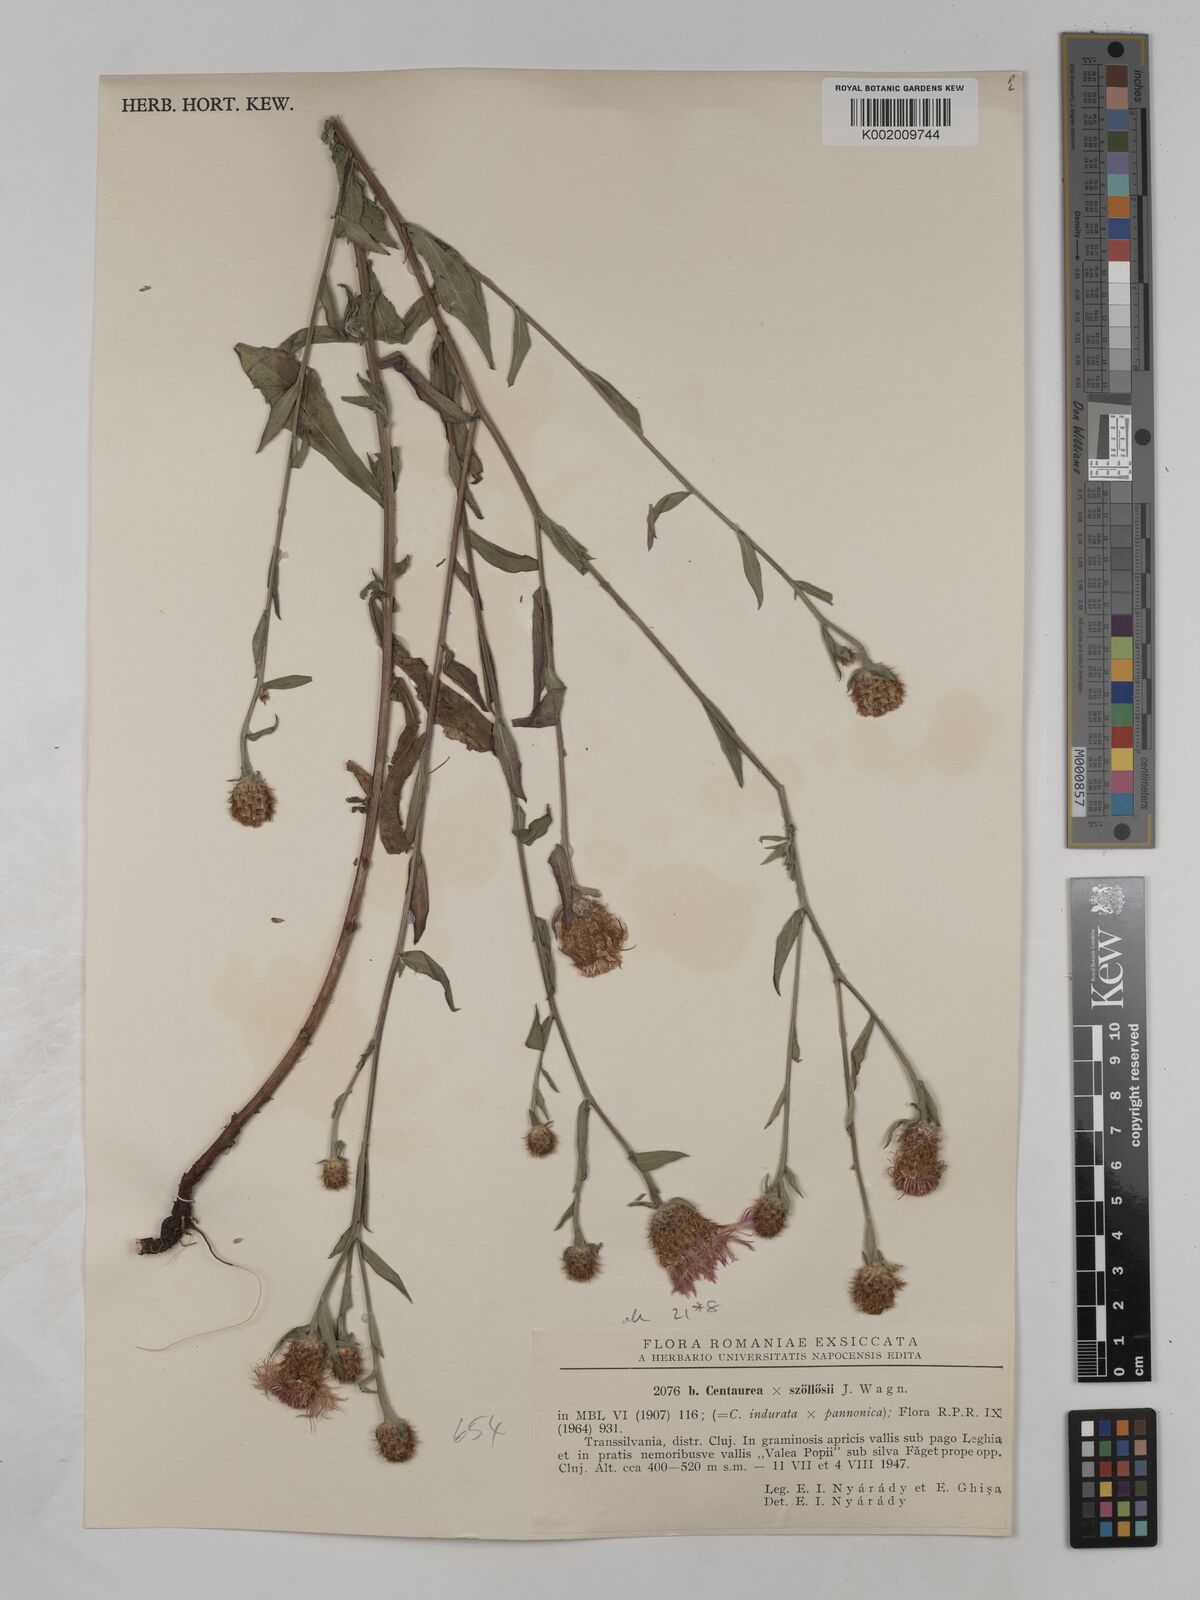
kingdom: Plantae
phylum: Tracheophyta
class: Magnoliopsida
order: Asterales
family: Asteraceae
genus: Centaurea
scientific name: Centaurea szoelloesii
